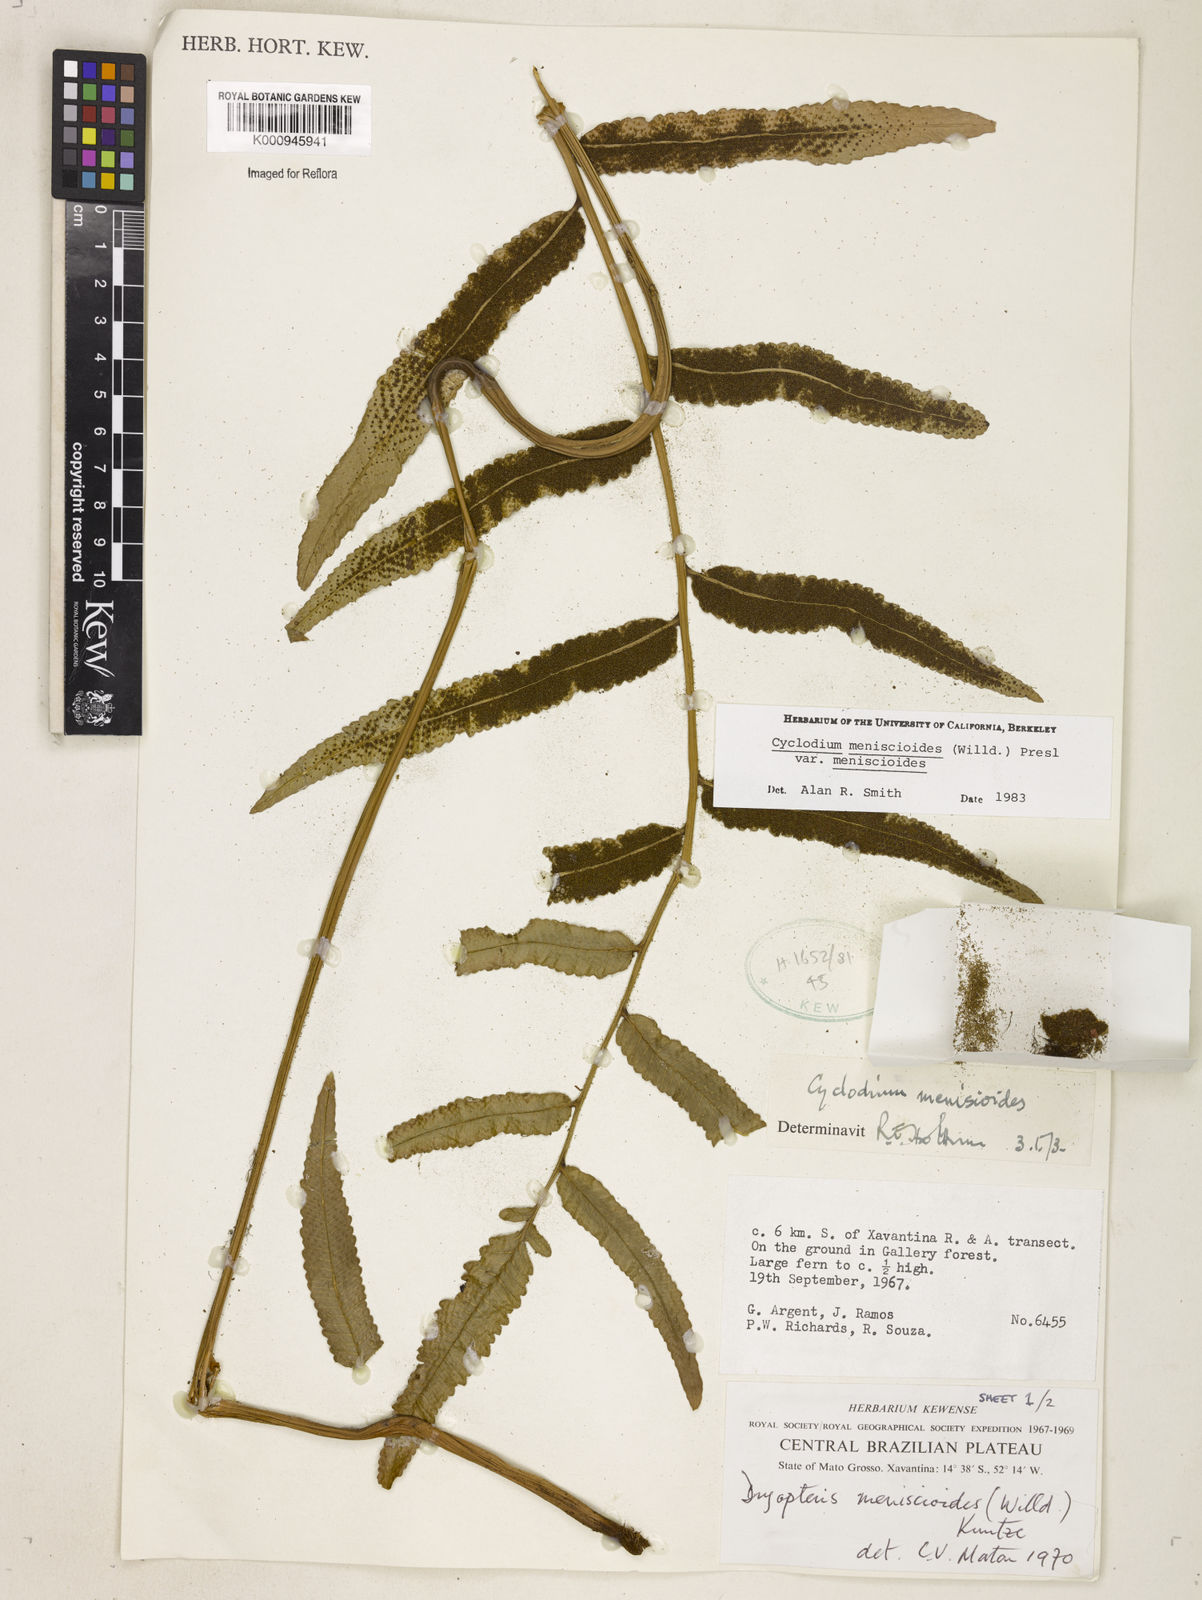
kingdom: Plantae
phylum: Tracheophyta
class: Polypodiopsida
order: Polypodiales
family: Dryopteridaceae
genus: Cyclodium
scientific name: Cyclodium meniscioides
